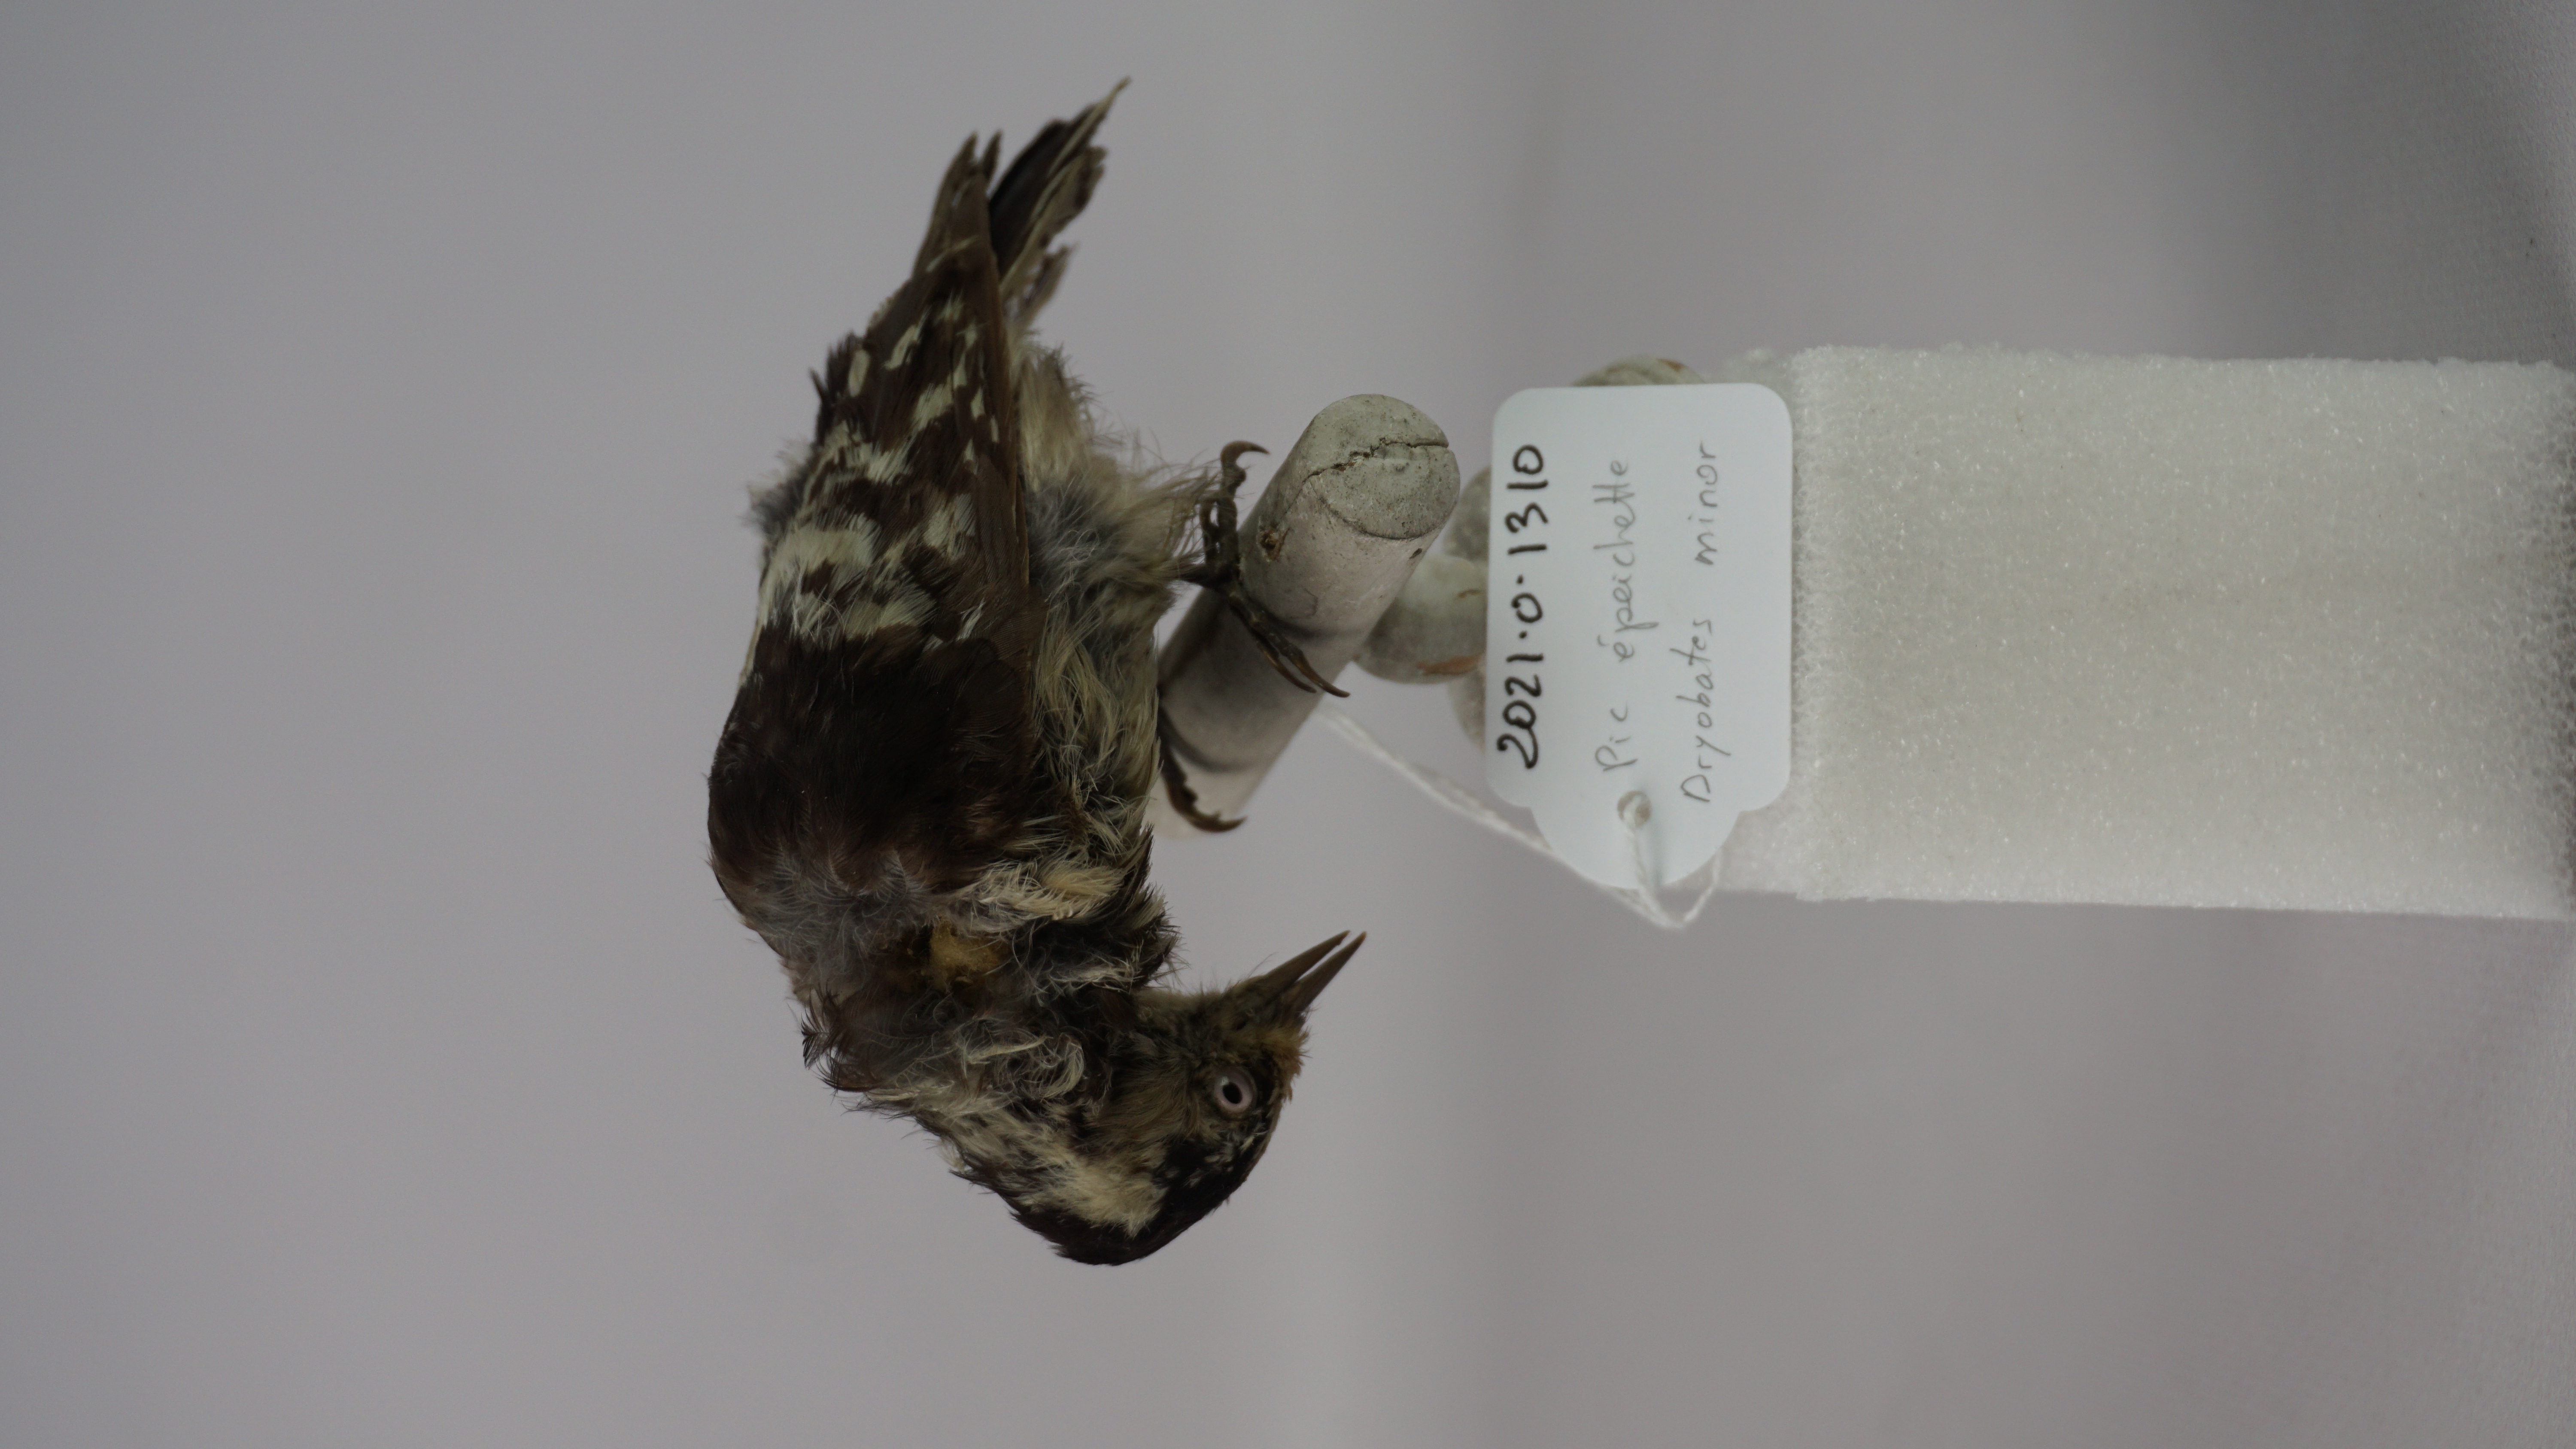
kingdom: Animalia
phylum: Chordata
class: Aves
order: Piciformes
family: Picidae
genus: Dryobates
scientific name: Dryobates minor
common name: Lesser spotted woodpecker
